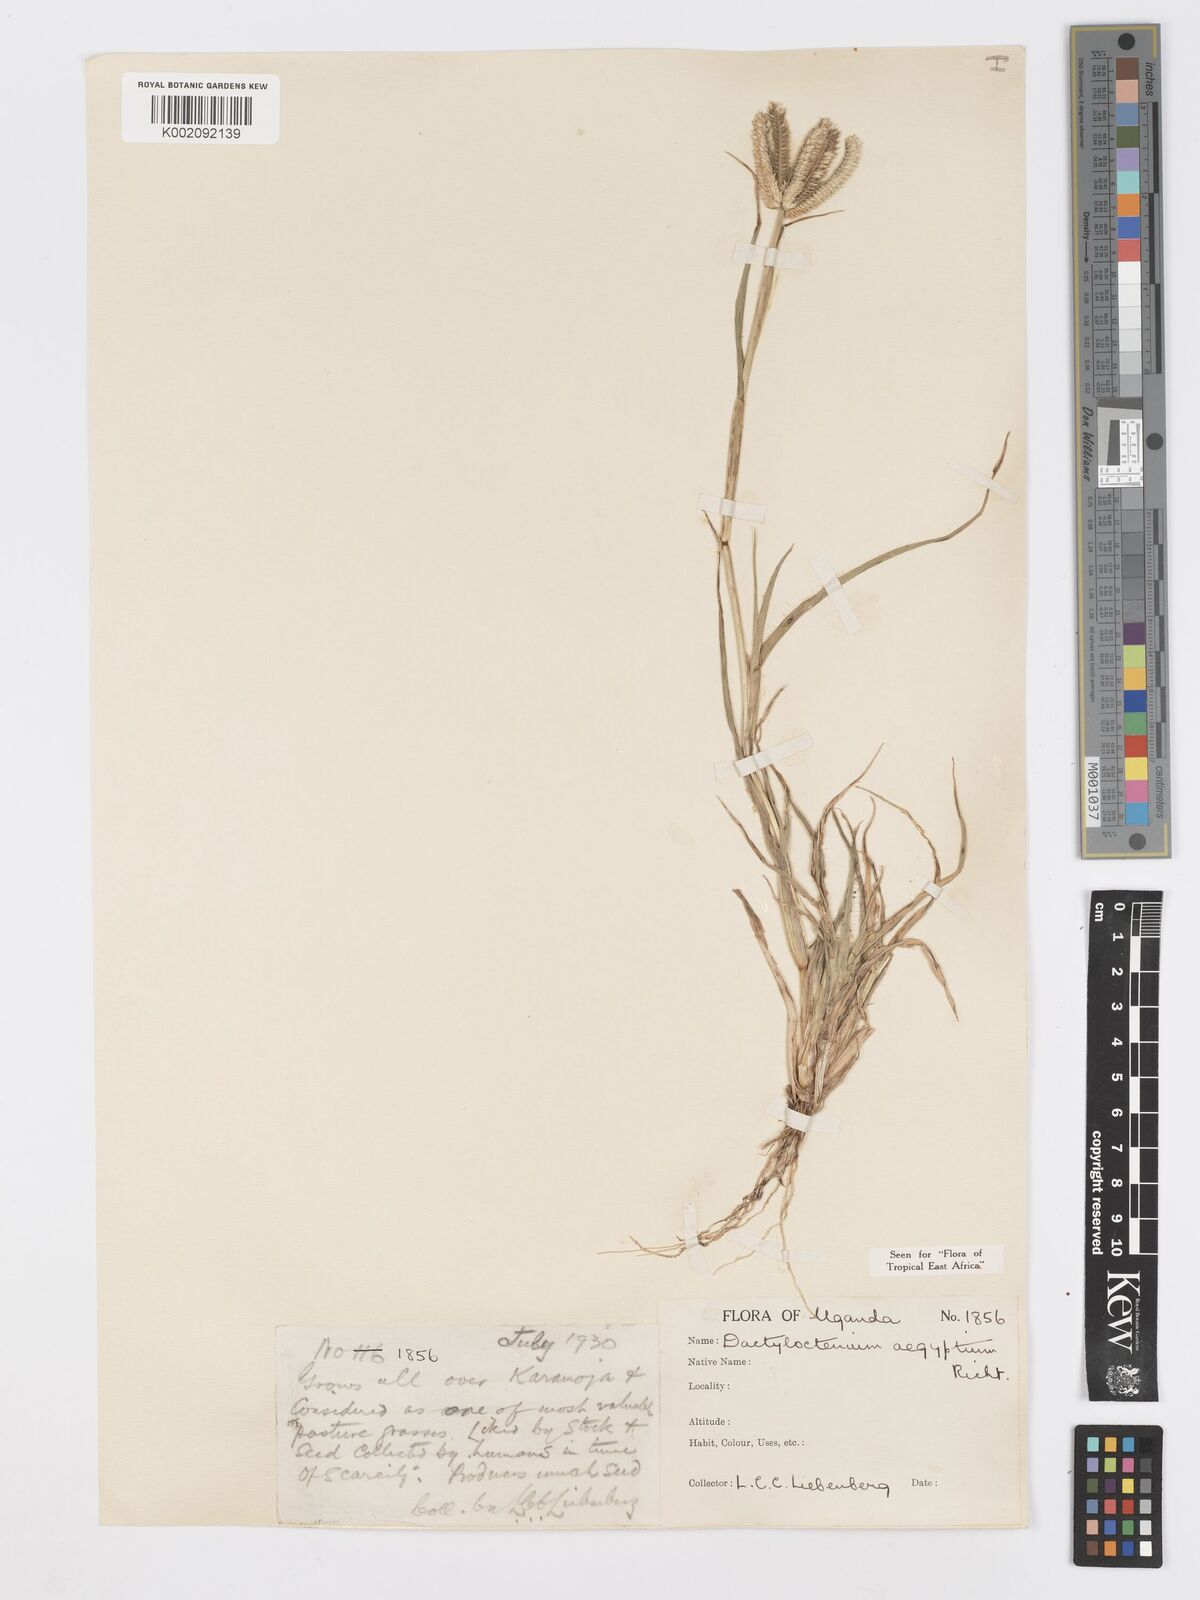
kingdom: Plantae
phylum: Tracheophyta
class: Liliopsida
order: Poales
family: Poaceae
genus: Dactyloctenium
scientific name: Dactyloctenium aegyptium
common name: Egyptian grass
